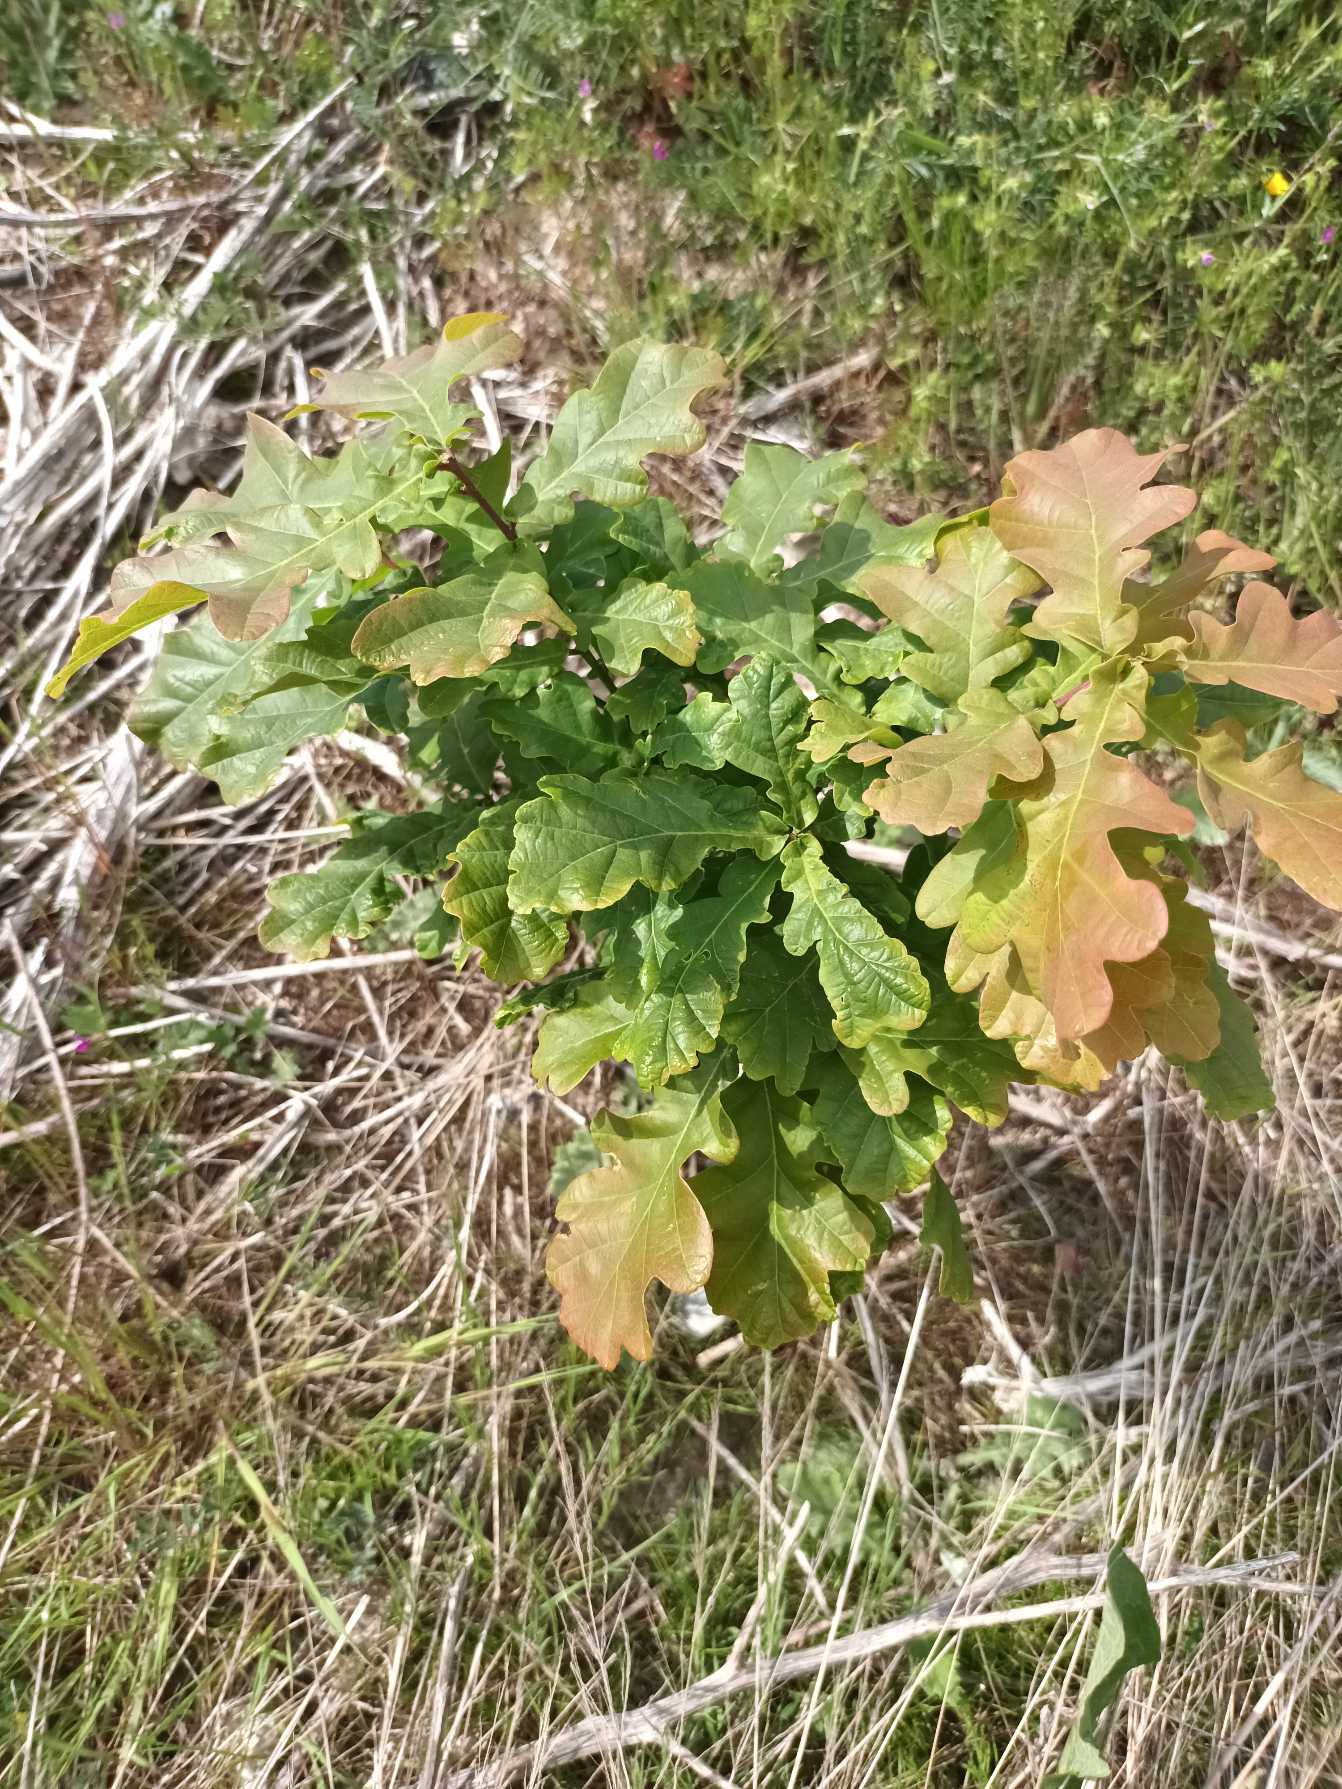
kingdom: Plantae
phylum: Tracheophyta
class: Magnoliopsida
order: Fagales
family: Fagaceae
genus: Quercus
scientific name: Quercus robur
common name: Stilk-eg/almindelig eg
